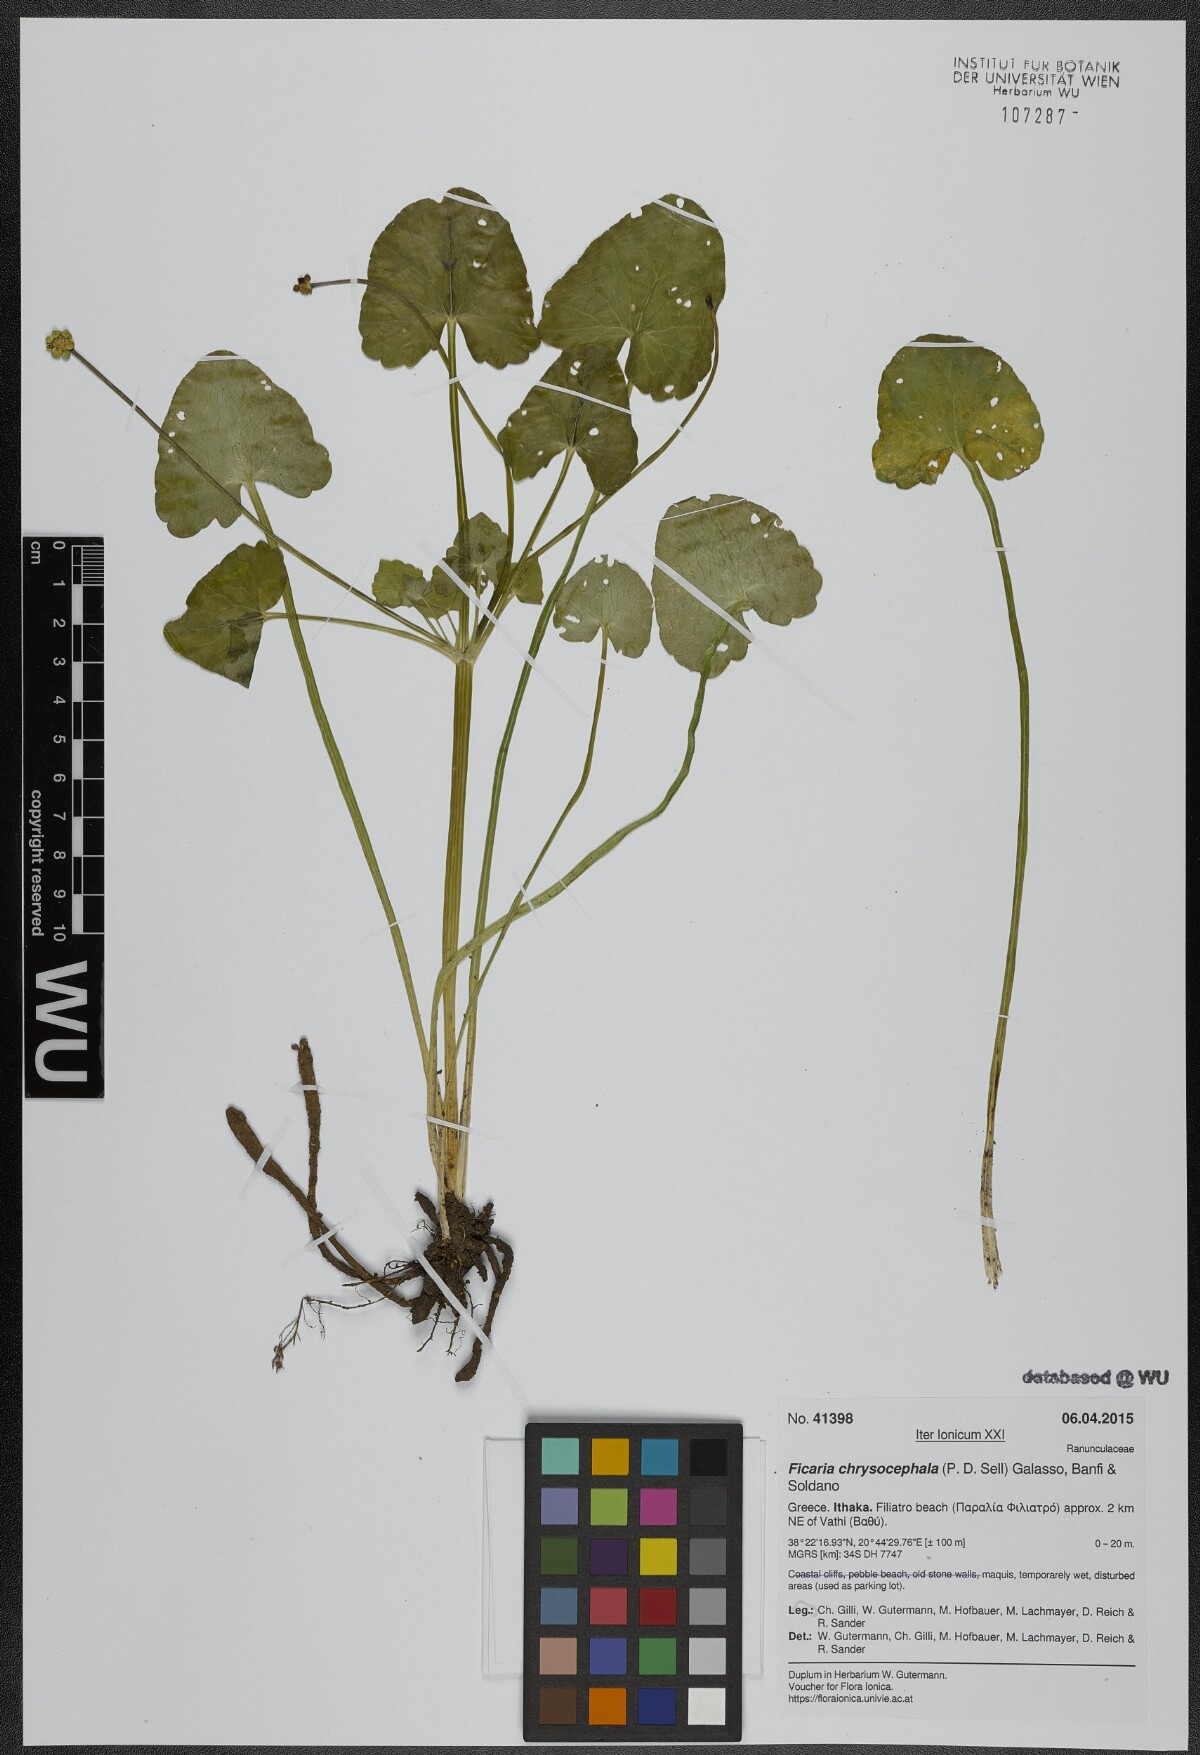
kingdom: Plantae
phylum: Tracheophyta
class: Magnoliopsida
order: Ranunculales
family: Ranunculaceae
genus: Ficaria
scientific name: Ficaria chrysocephala
